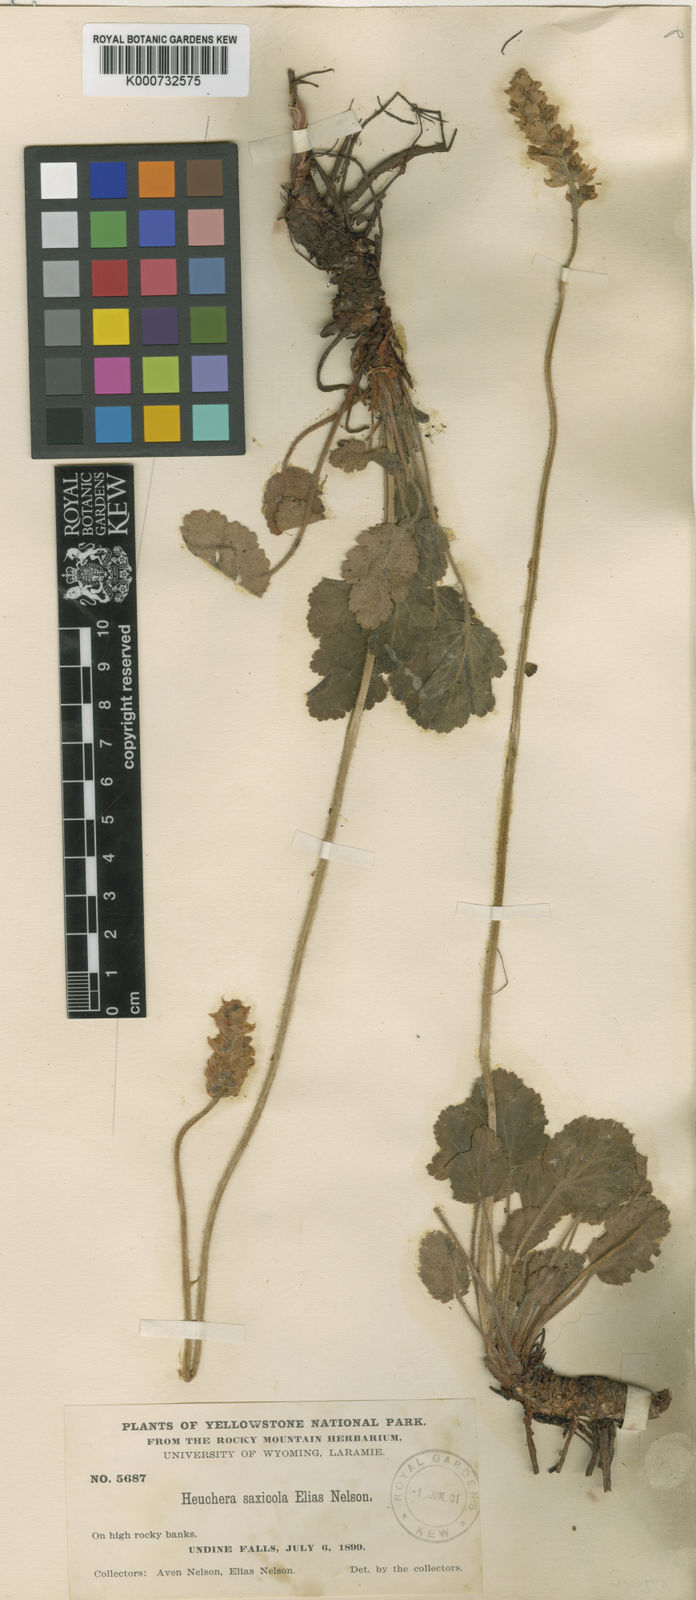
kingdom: Plantae
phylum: Tracheophyta
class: Magnoliopsida
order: Saxifragales
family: Saxifragaceae
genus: Heuchera
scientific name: Heuchera
